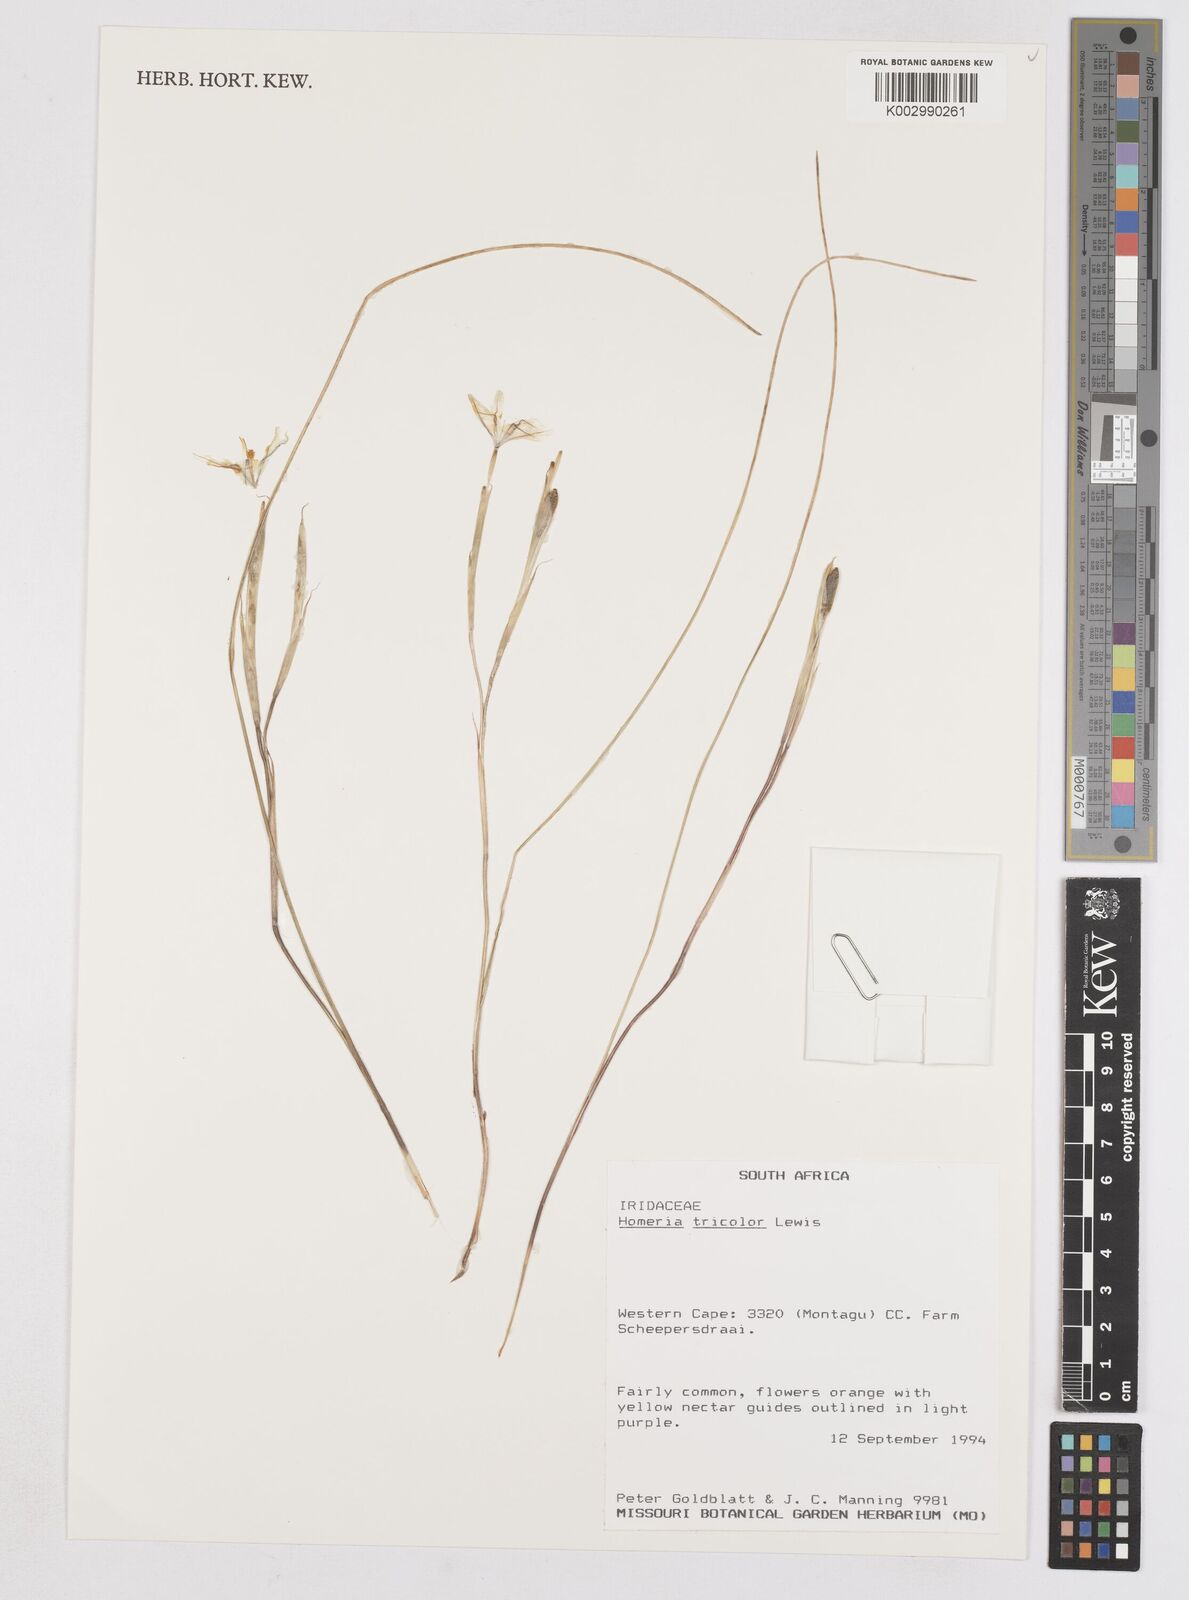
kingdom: Plantae
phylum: Tracheophyta
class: Liliopsida
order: Asparagales
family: Iridaceae
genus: Moraea
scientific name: Moraea
